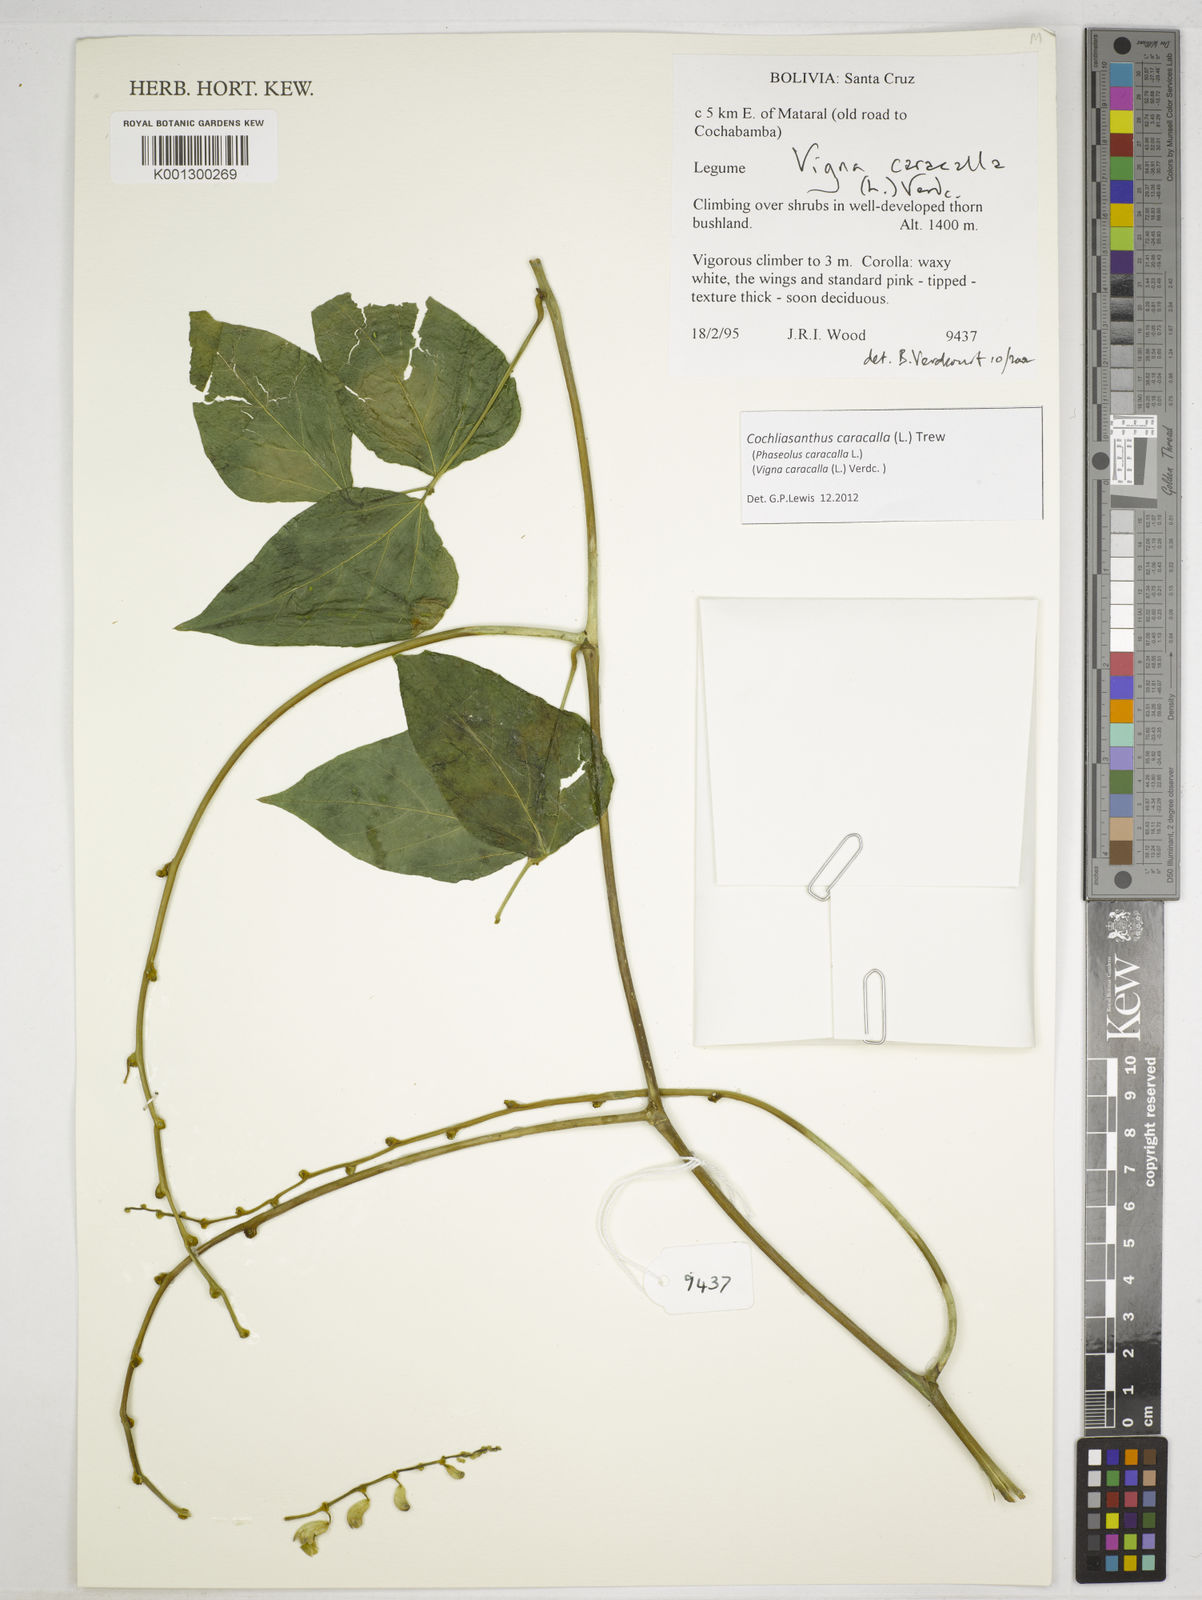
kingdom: Plantae
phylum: Tracheophyta
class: Magnoliopsida
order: Fabales
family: Fabaceae
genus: Cochliasanthus
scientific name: Cochliasanthus caracalla
